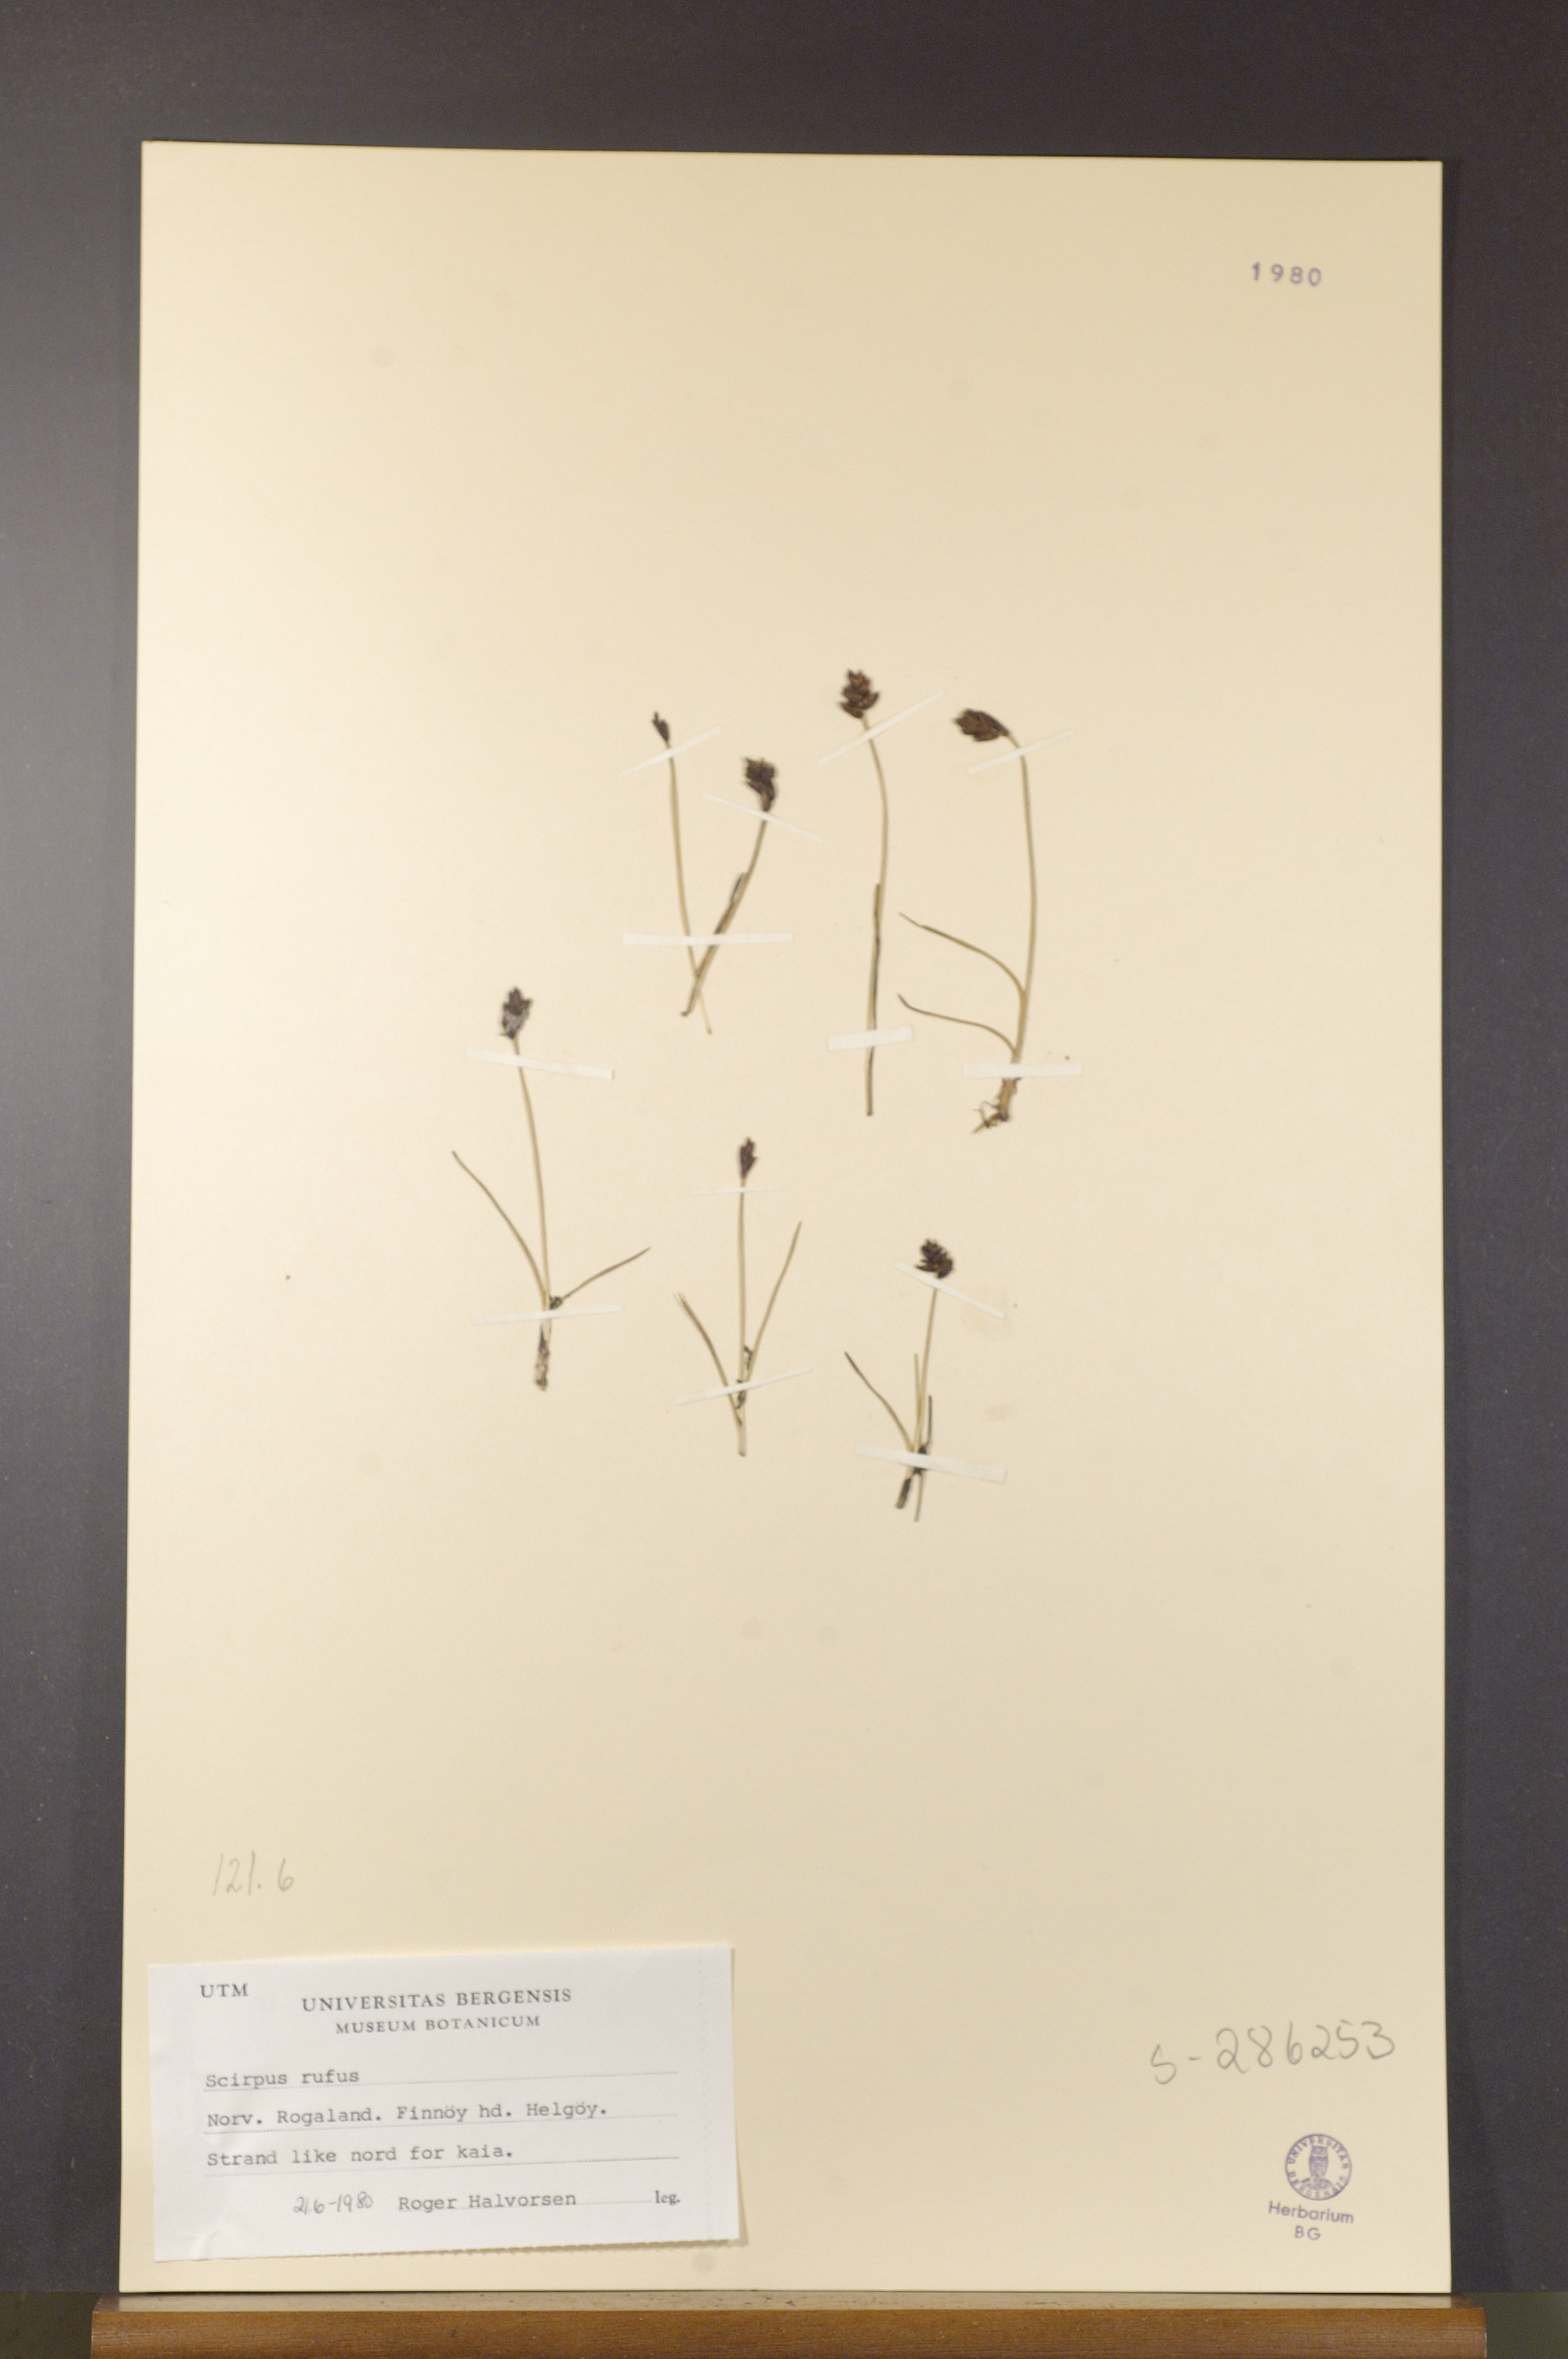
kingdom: Plantae
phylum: Tracheophyta
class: Liliopsida
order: Poales
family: Cyperaceae
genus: Blysmus
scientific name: Blysmus rufus
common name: Saltmarsh flat-sedge
